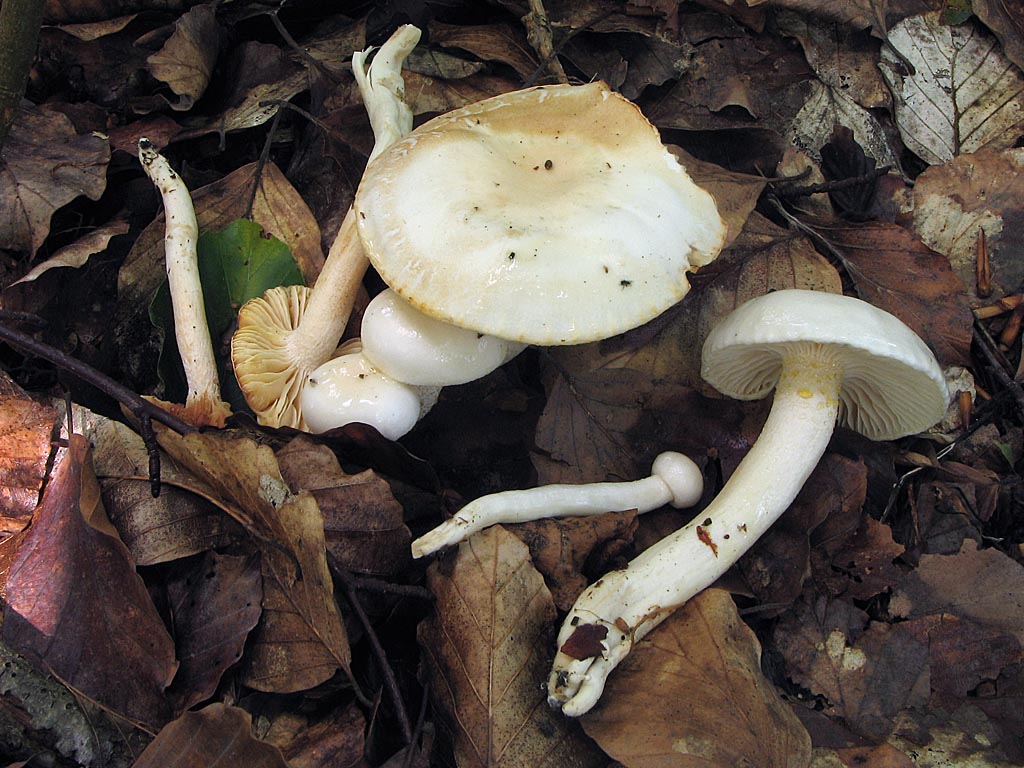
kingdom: Fungi
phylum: Basidiomycota
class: Agaricomycetes
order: Agaricales
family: Hygrophoraceae
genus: Hygrophorus
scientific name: Hygrophorus eburneus
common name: elfenbens-sneglehat
